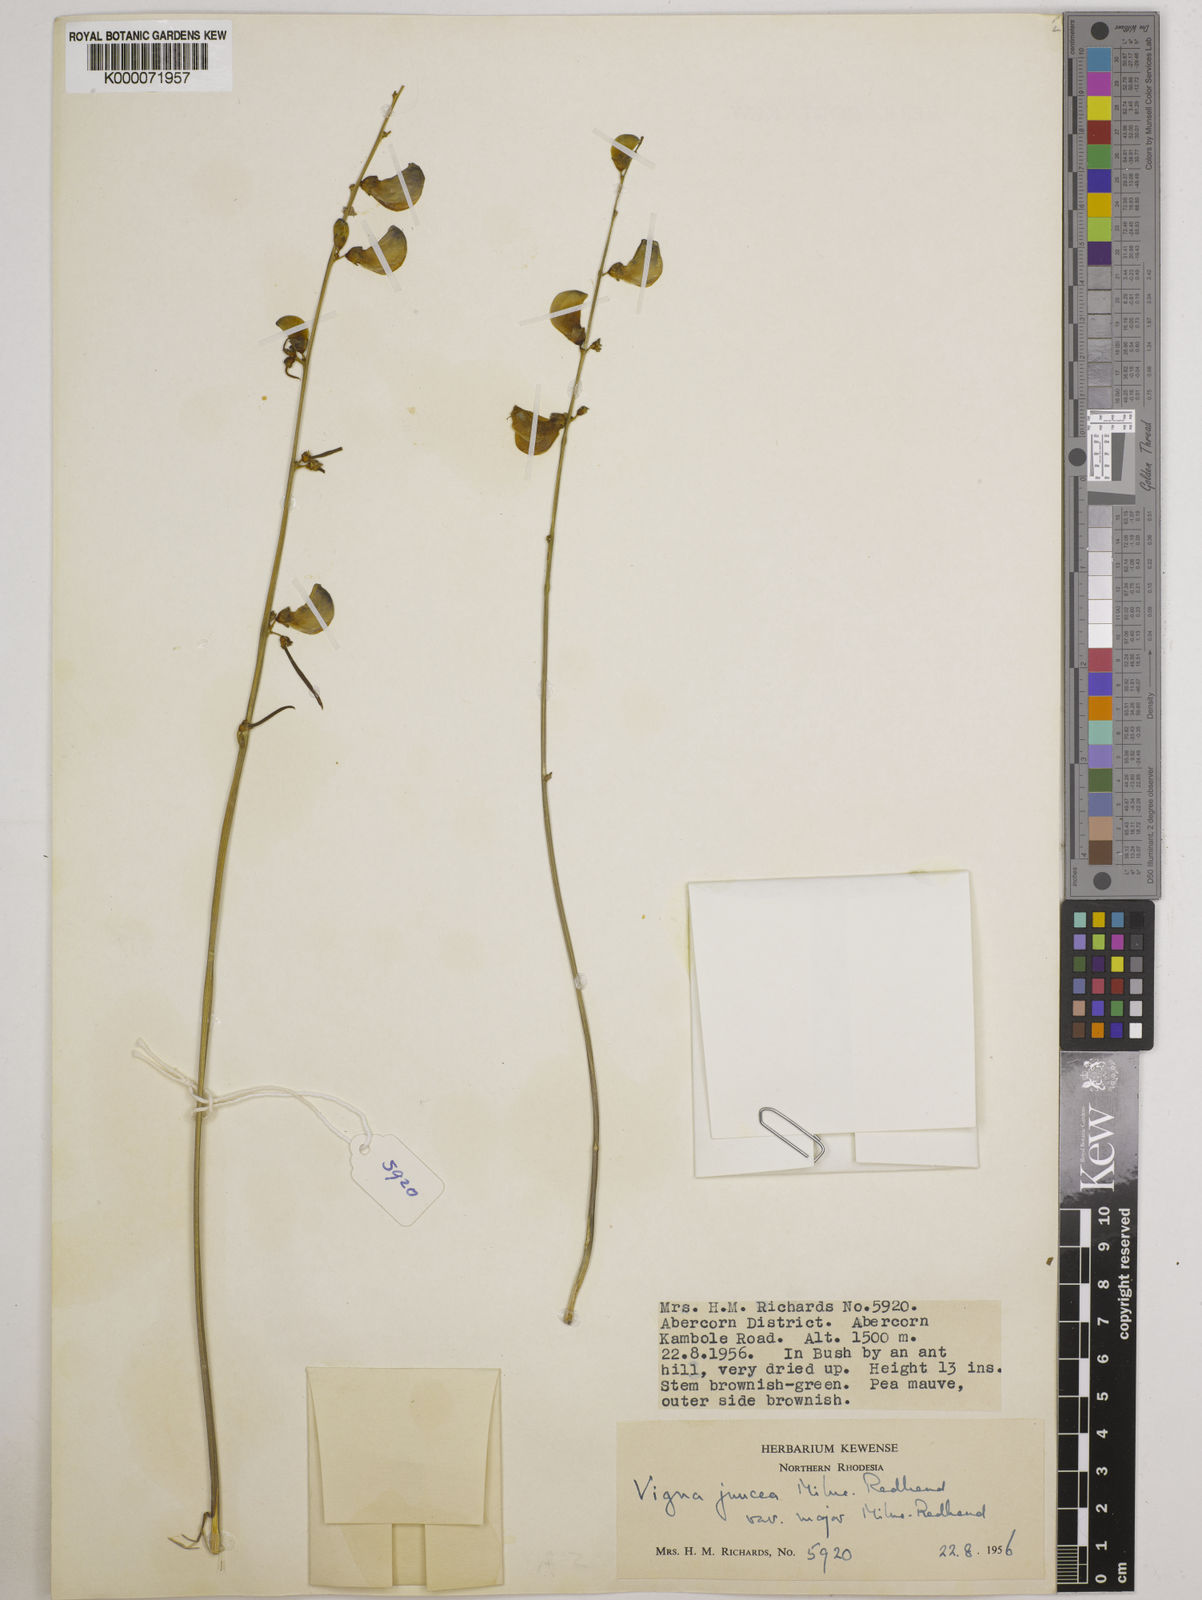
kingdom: Plantae
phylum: Tracheophyta
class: Magnoliopsida
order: Fabales
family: Fabaceae
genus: Vigna
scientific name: Vigna juncea
